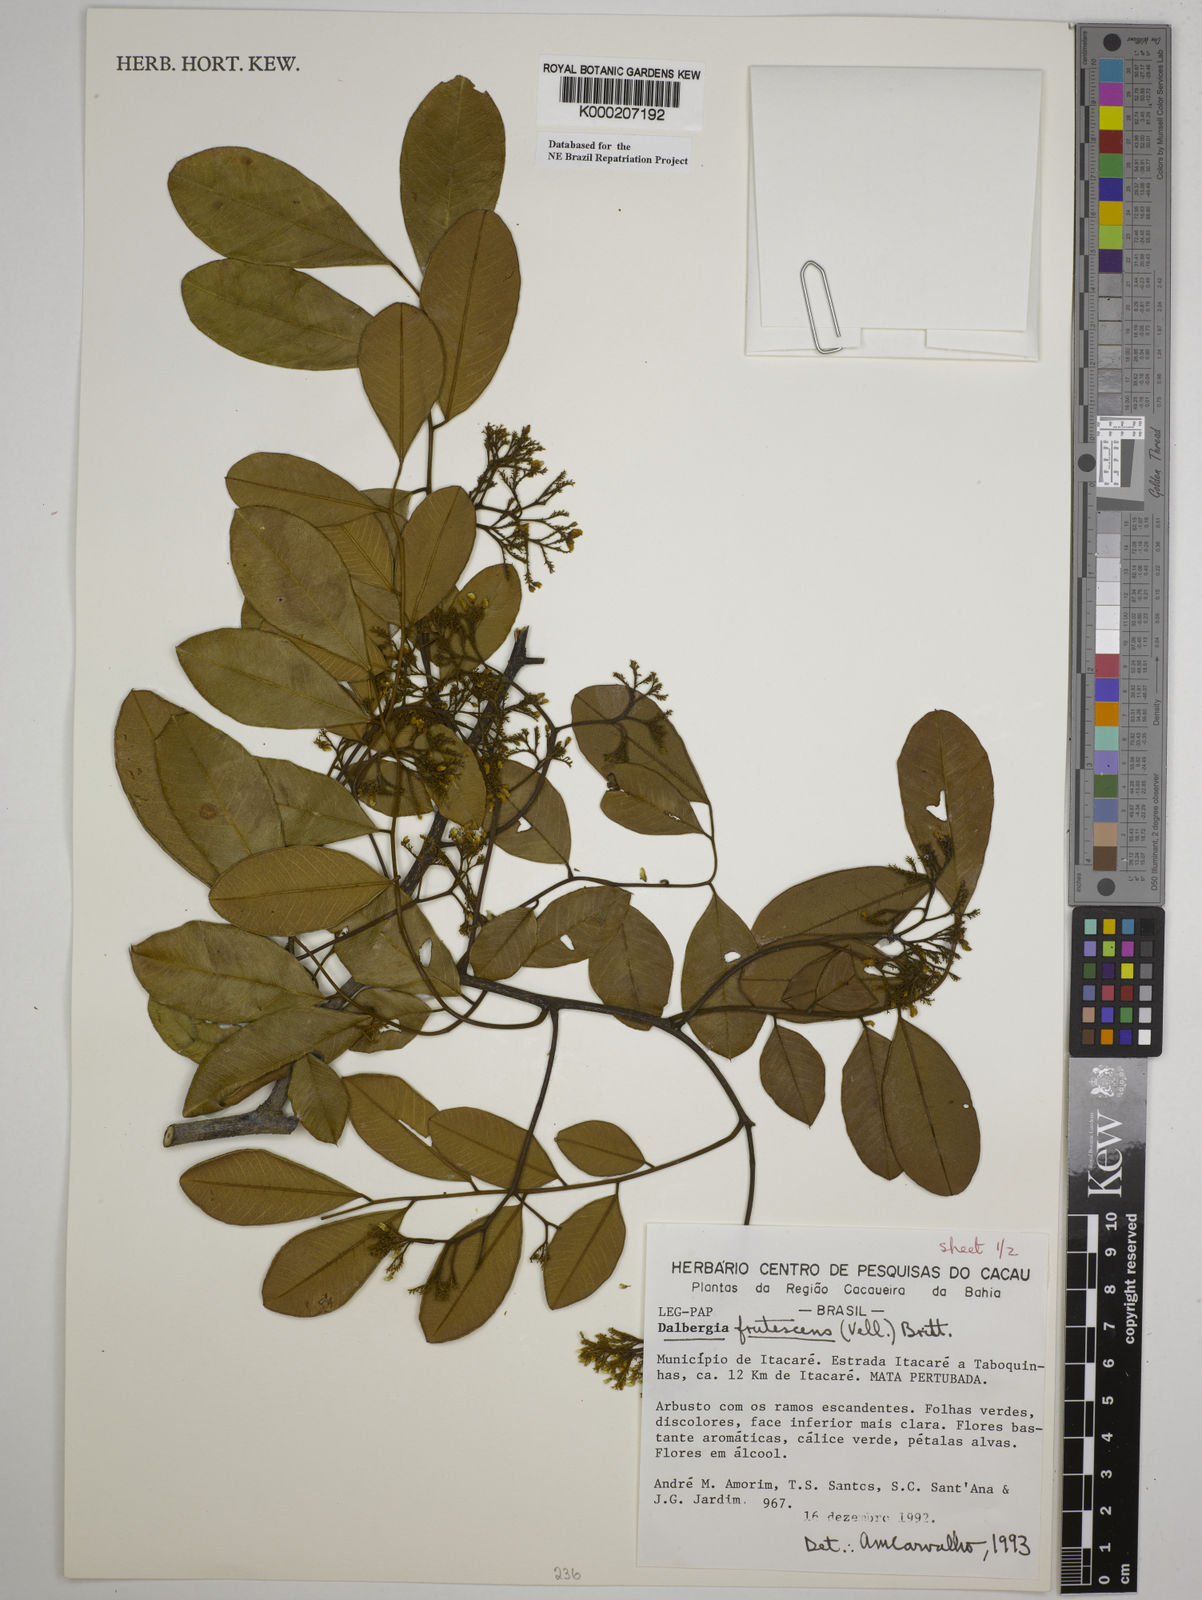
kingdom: Plantae
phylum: Tracheophyta
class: Magnoliopsida
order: Fabales
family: Fabaceae
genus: Dalbergia
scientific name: Dalbergia frutescens
